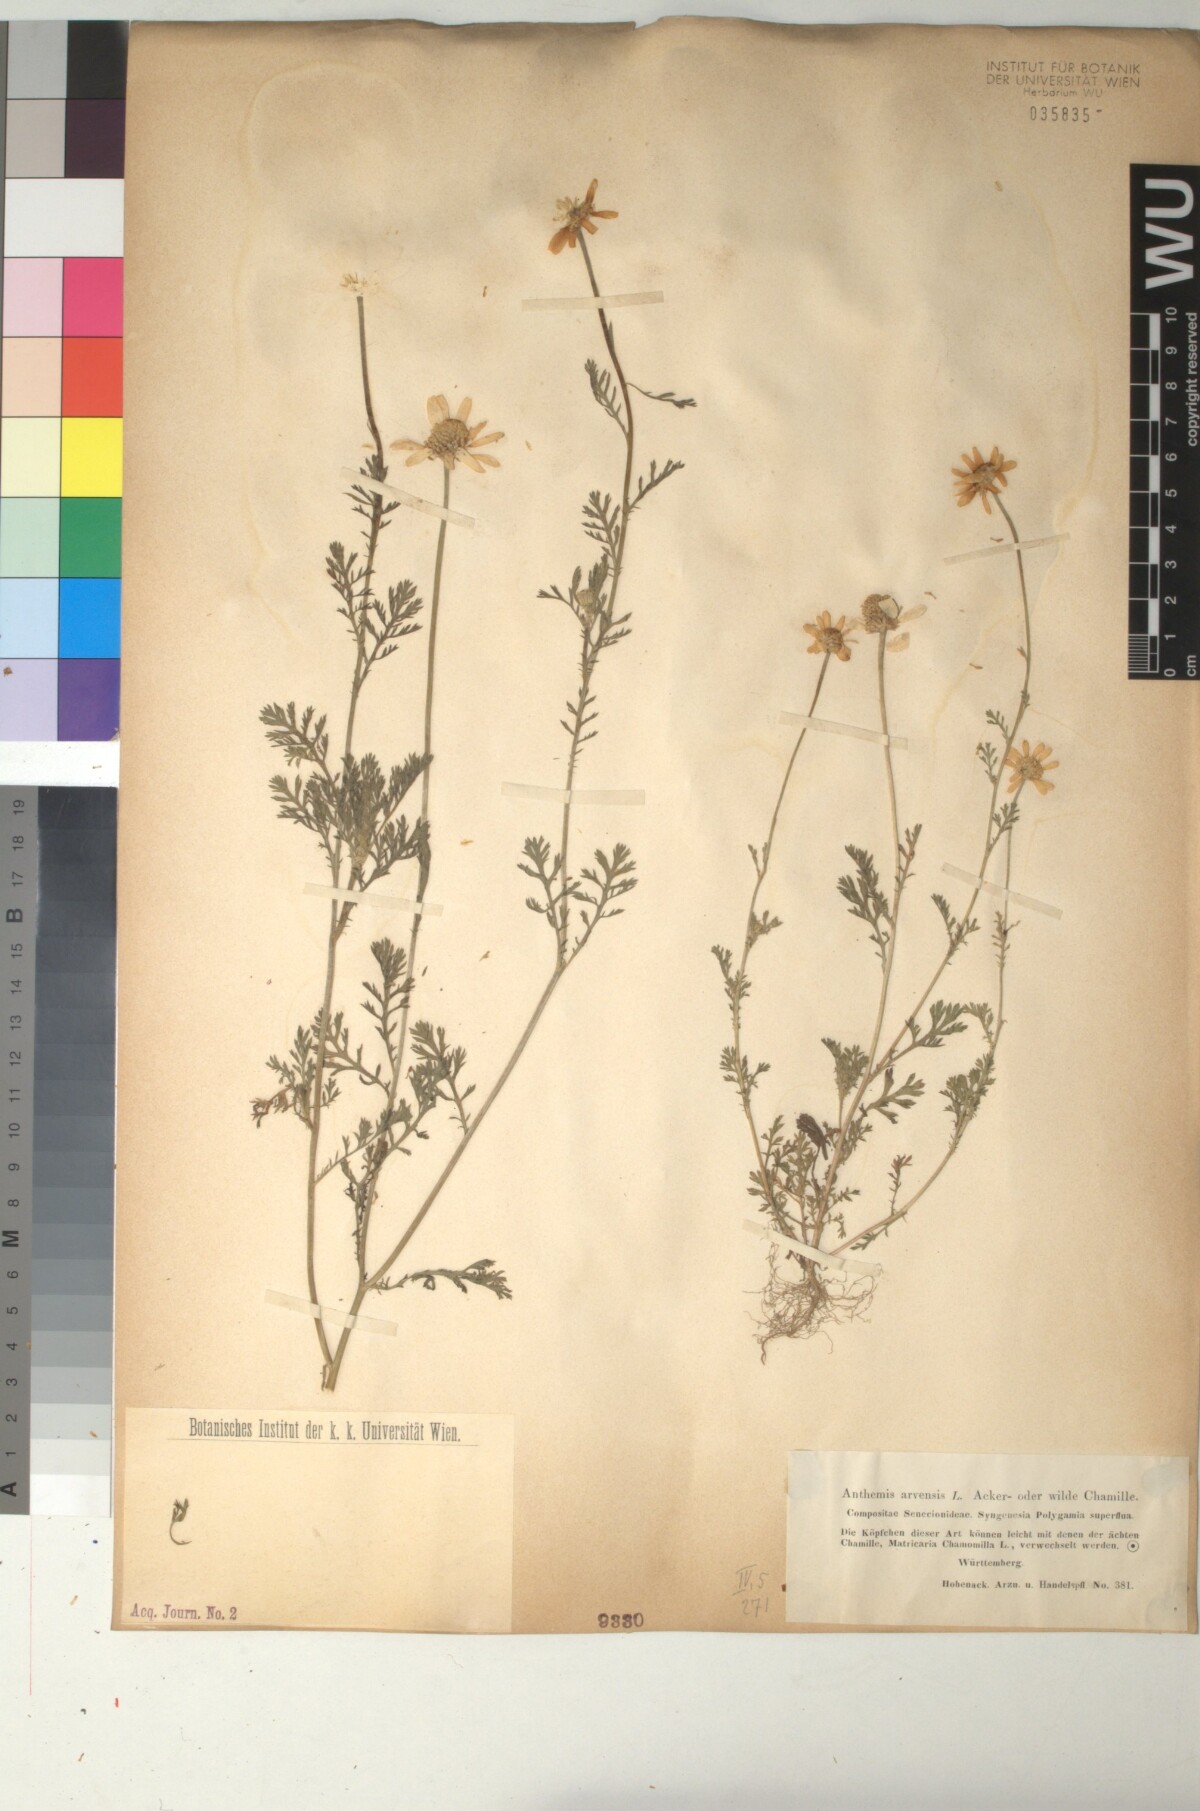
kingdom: Plantae
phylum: Tracheophyta
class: Magnoliopsida
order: Asterales
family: Asteraceae
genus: Anthemis
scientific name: Anthemis arvensis
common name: Corn chamomile
